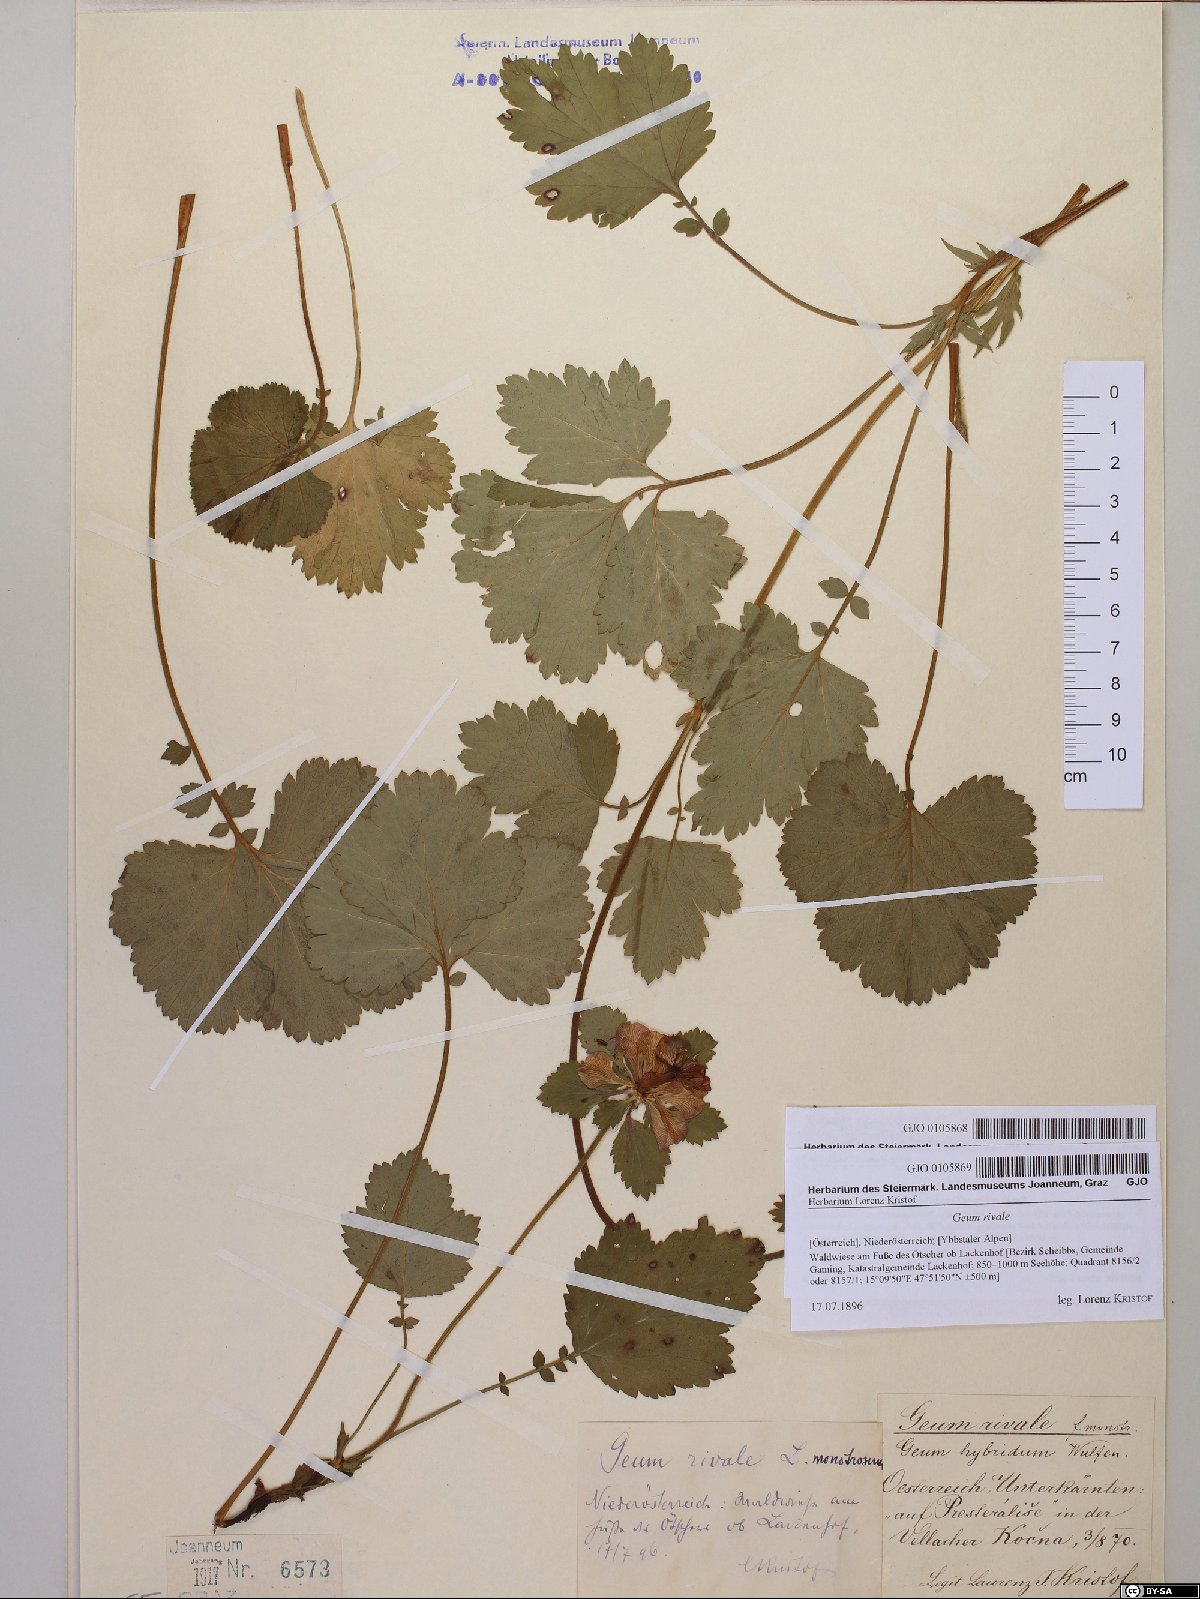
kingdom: Plantae
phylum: Tracheophyta
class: Magnoliopsida
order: Rosales
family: Rosaceae
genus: Geum
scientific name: Geum rivale
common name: Water avens
